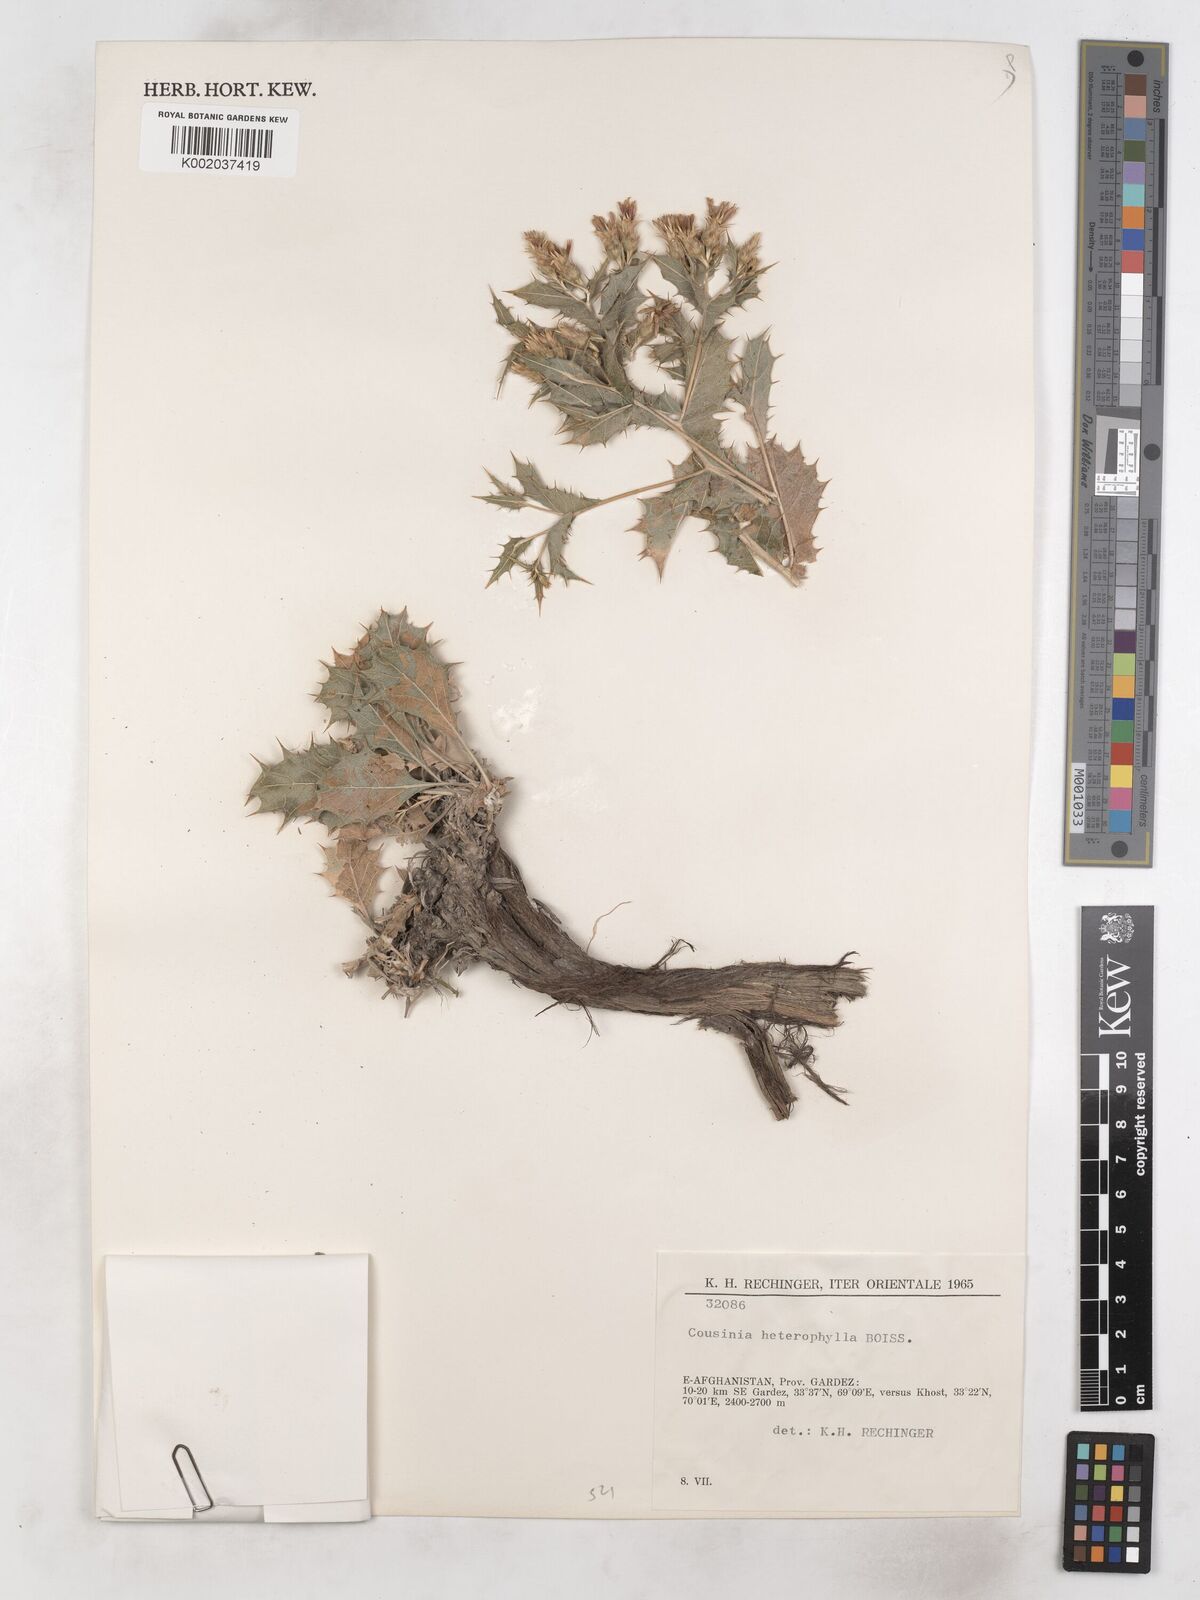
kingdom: Plantae
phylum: Tracheophyta
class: Magnoliopsida
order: Asterales
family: Asteraceae
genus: Cousinia
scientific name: Cousinia heterophylla
